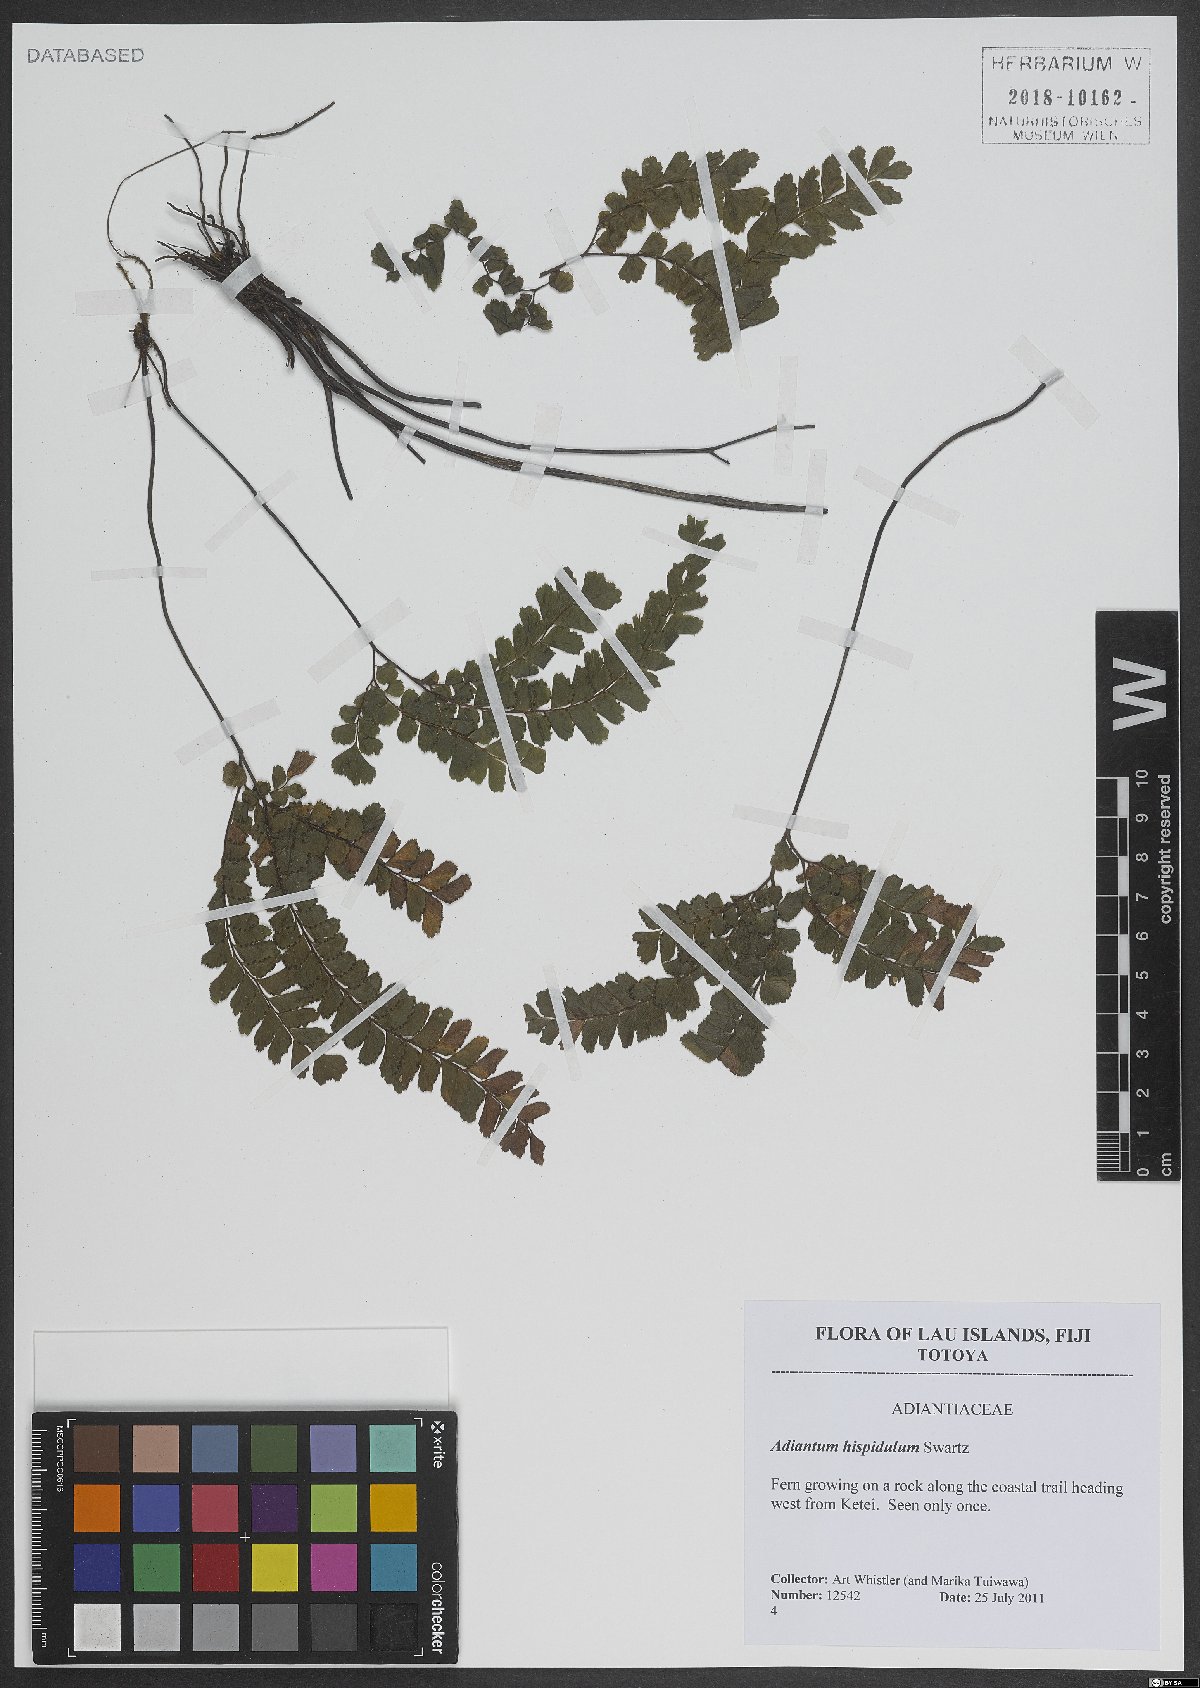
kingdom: Plantae
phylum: Tracheophyta
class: Polypodiopsida
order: Polypodiales
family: Pteridaceae
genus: Adiantum
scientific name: Adiantum hispidulum
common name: Rough maidenhair
